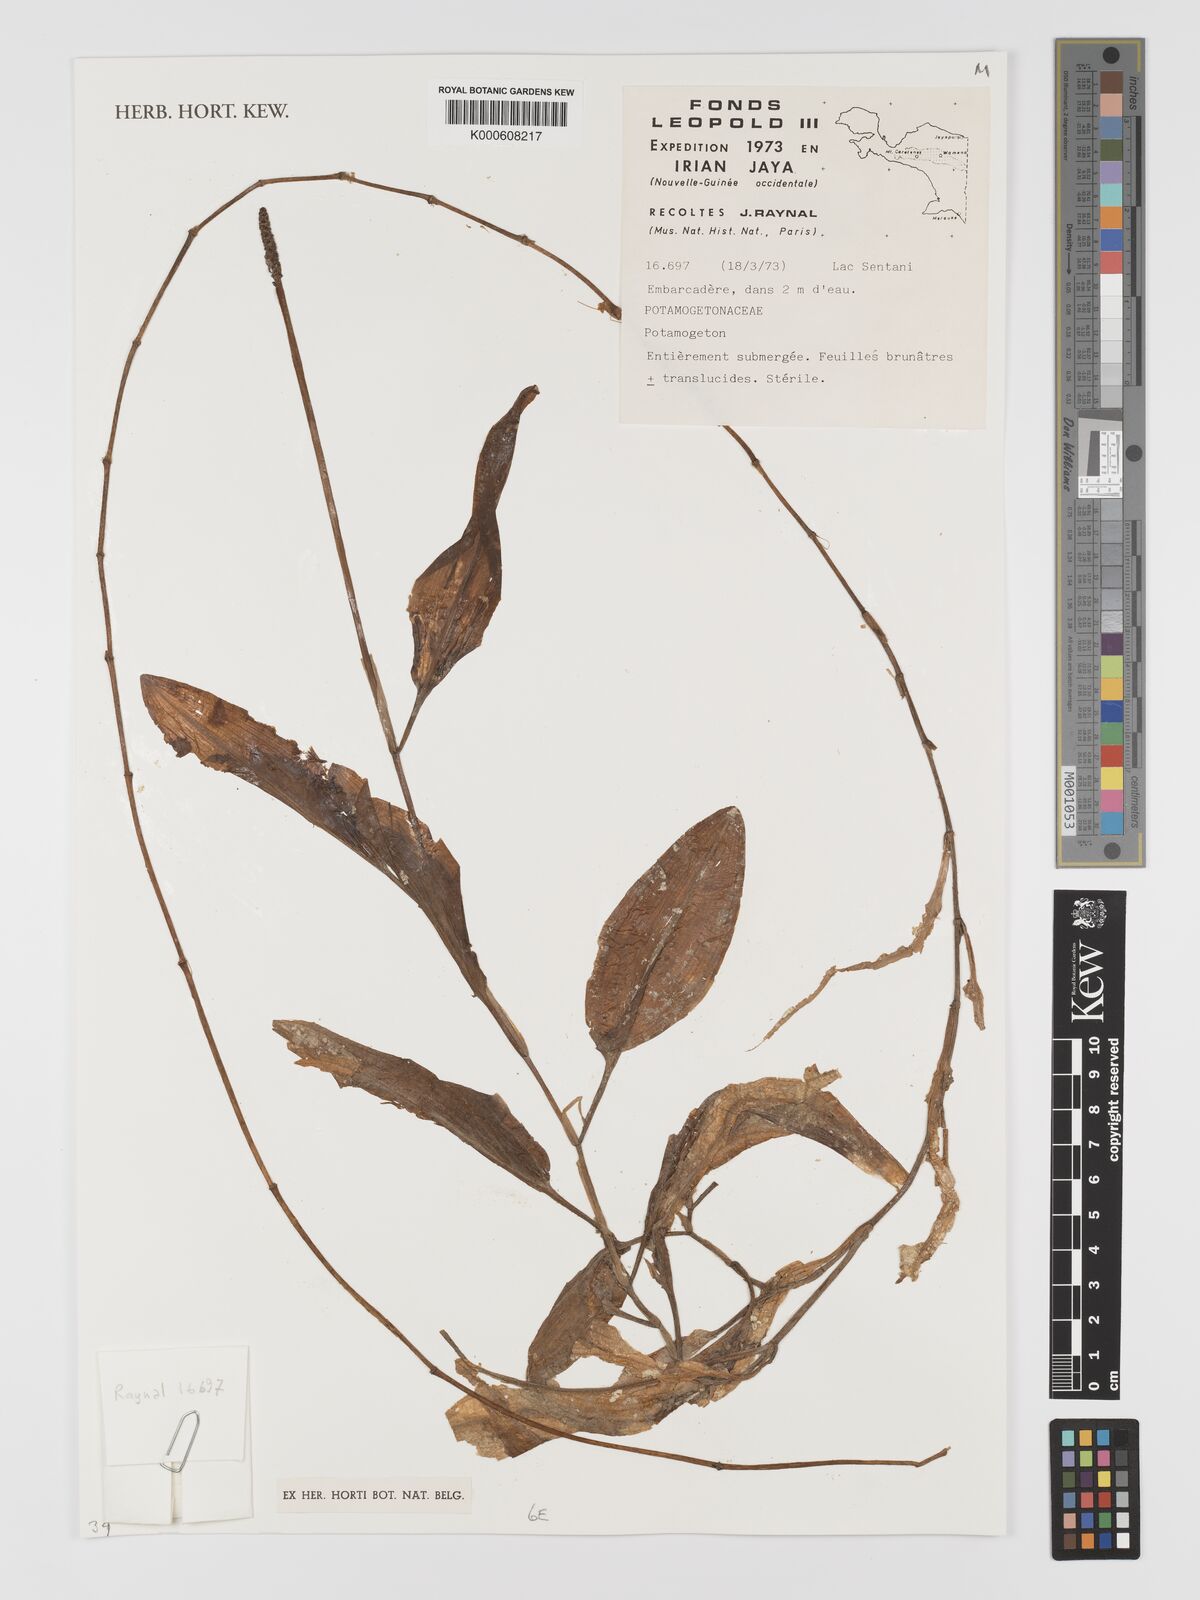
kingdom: Plantae
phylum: Tracheophyta
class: Liliopsida
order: Alismatales
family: Potamogetonaceae
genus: Potamogeton
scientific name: Potamogeton
